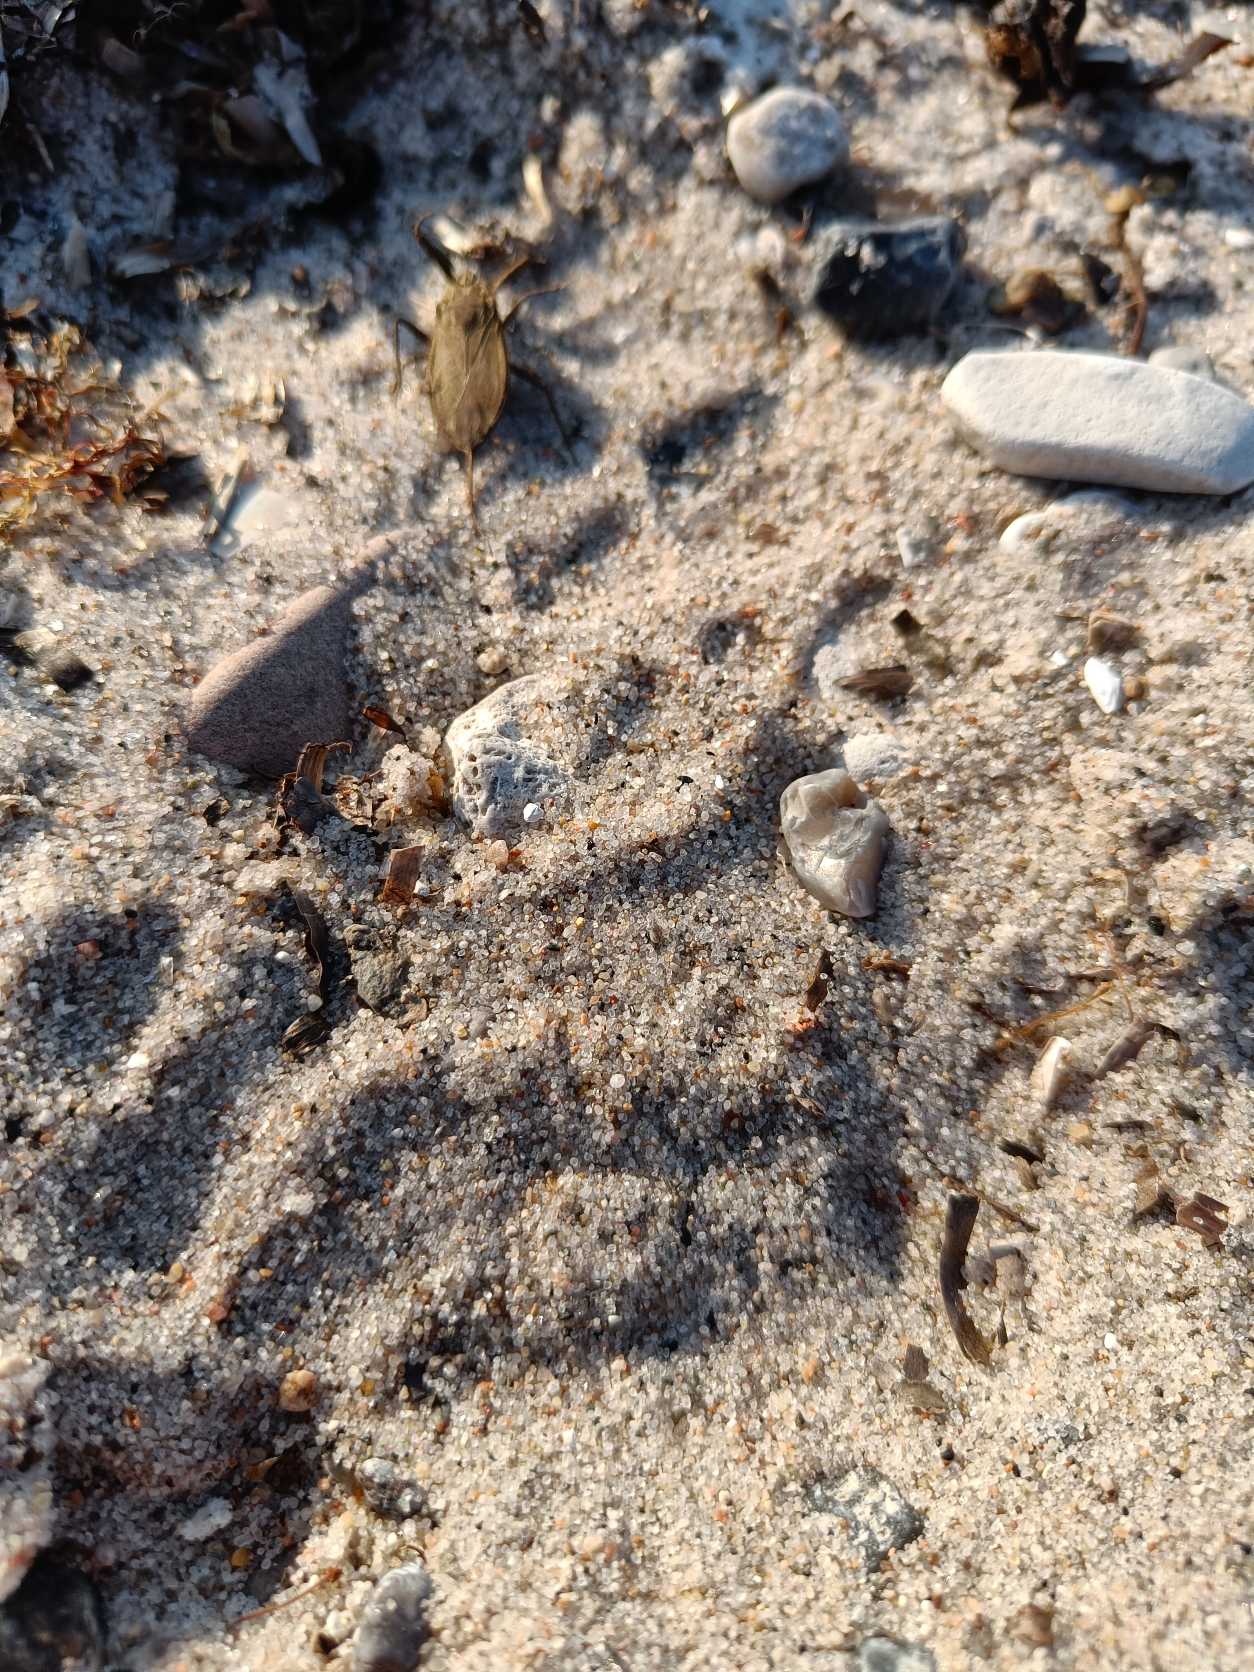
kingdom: Animalia
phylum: Arthropoda
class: Insecta
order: Hemiptera
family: Nepidae
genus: Nepa
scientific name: Nepa cinerea
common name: Skorpiontæge
